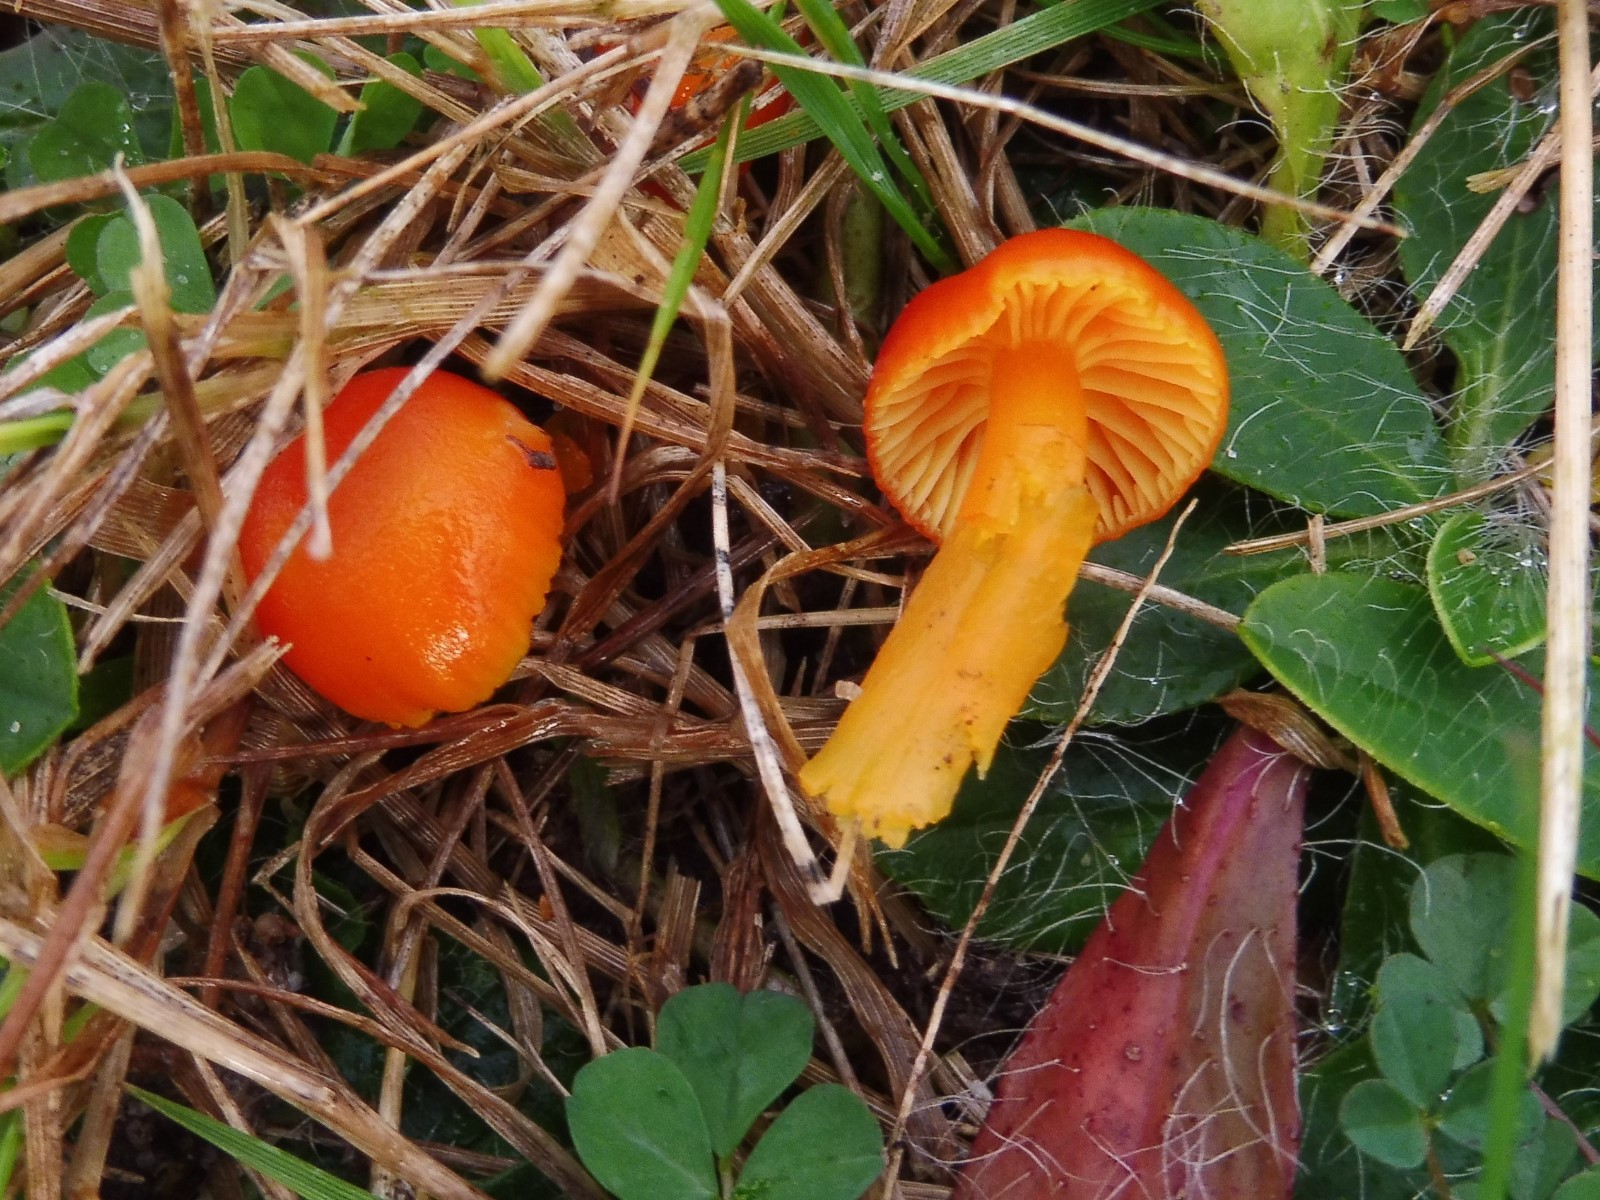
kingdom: Fungi
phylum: Basidiomycota
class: Agaricomycetes
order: Agaricales
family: Hygrophoraceae
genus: Hygrocybe
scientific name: Hygrocybe miniata
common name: mønje-vokshat
